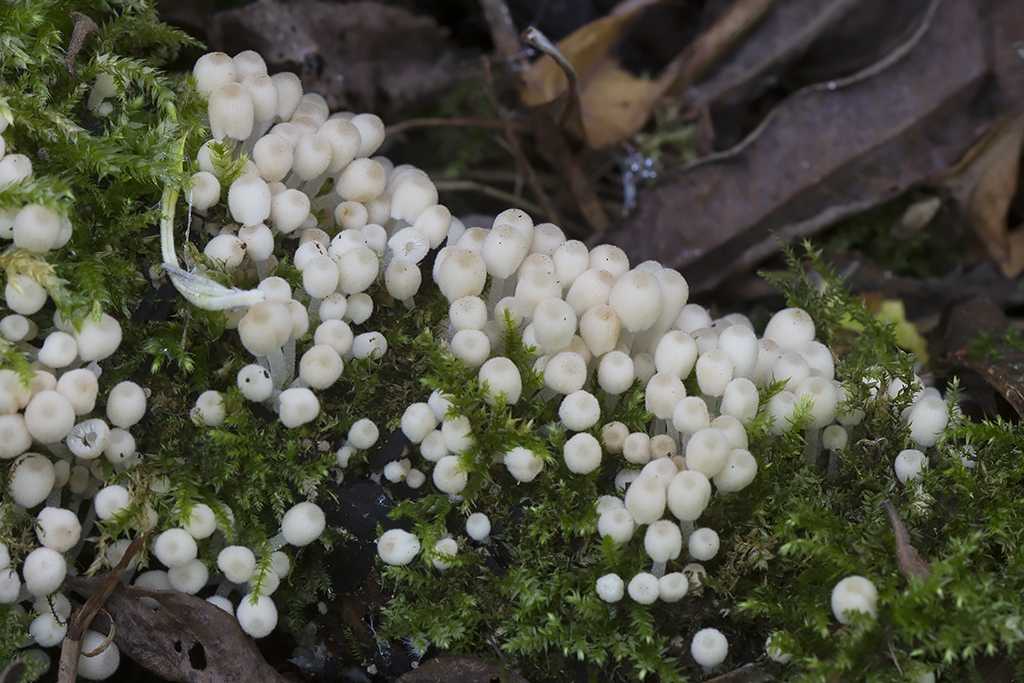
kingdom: Fungi
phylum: Basidiomycota
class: Agaricomycetes
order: Agaricales
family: Psathyrellaceae
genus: Coprinellus
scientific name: Coprinellus disseminatus
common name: bredsået blækhat
